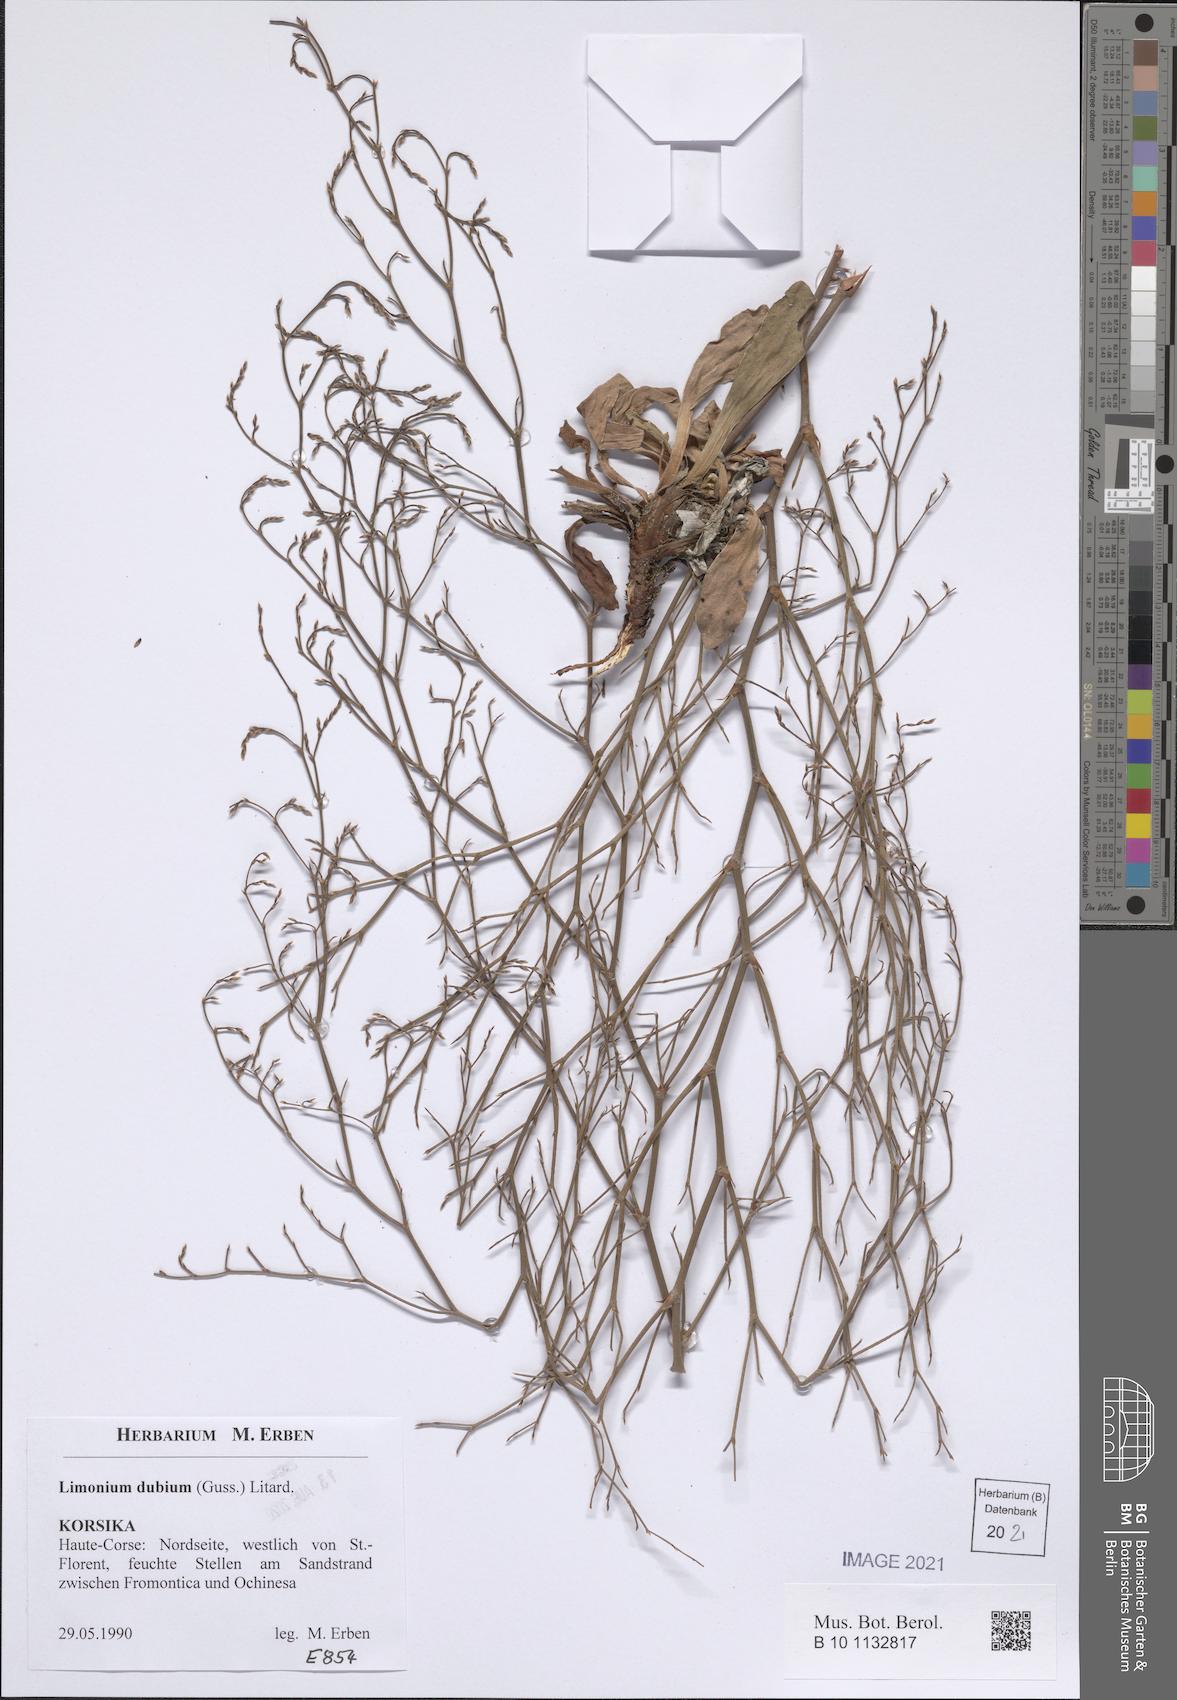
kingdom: Plantae
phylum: Tracheophyta
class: Magnoliopsida
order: Caryophyllales
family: Plumbaginaceae
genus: Limonium
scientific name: Limonium dubium
